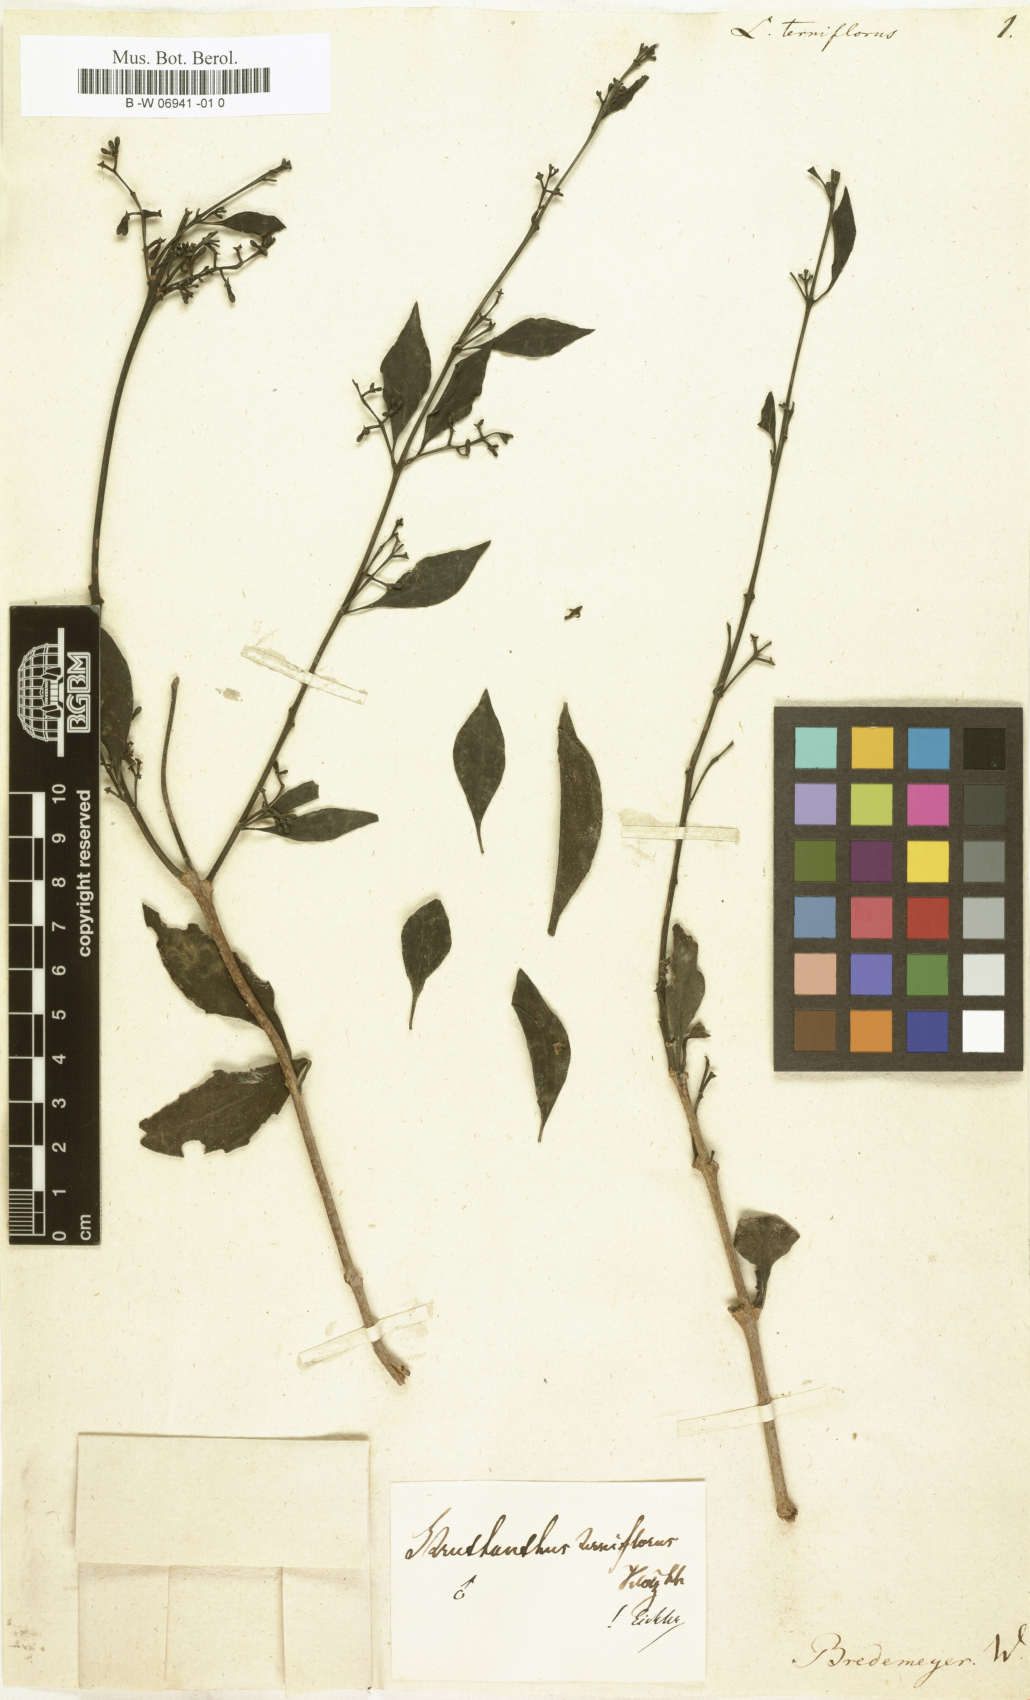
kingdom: Plantae
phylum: Tracheophyta
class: Magnoliopsida
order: Santalales
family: Loranthaceae
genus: Struthanthus
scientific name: Struthanthus
